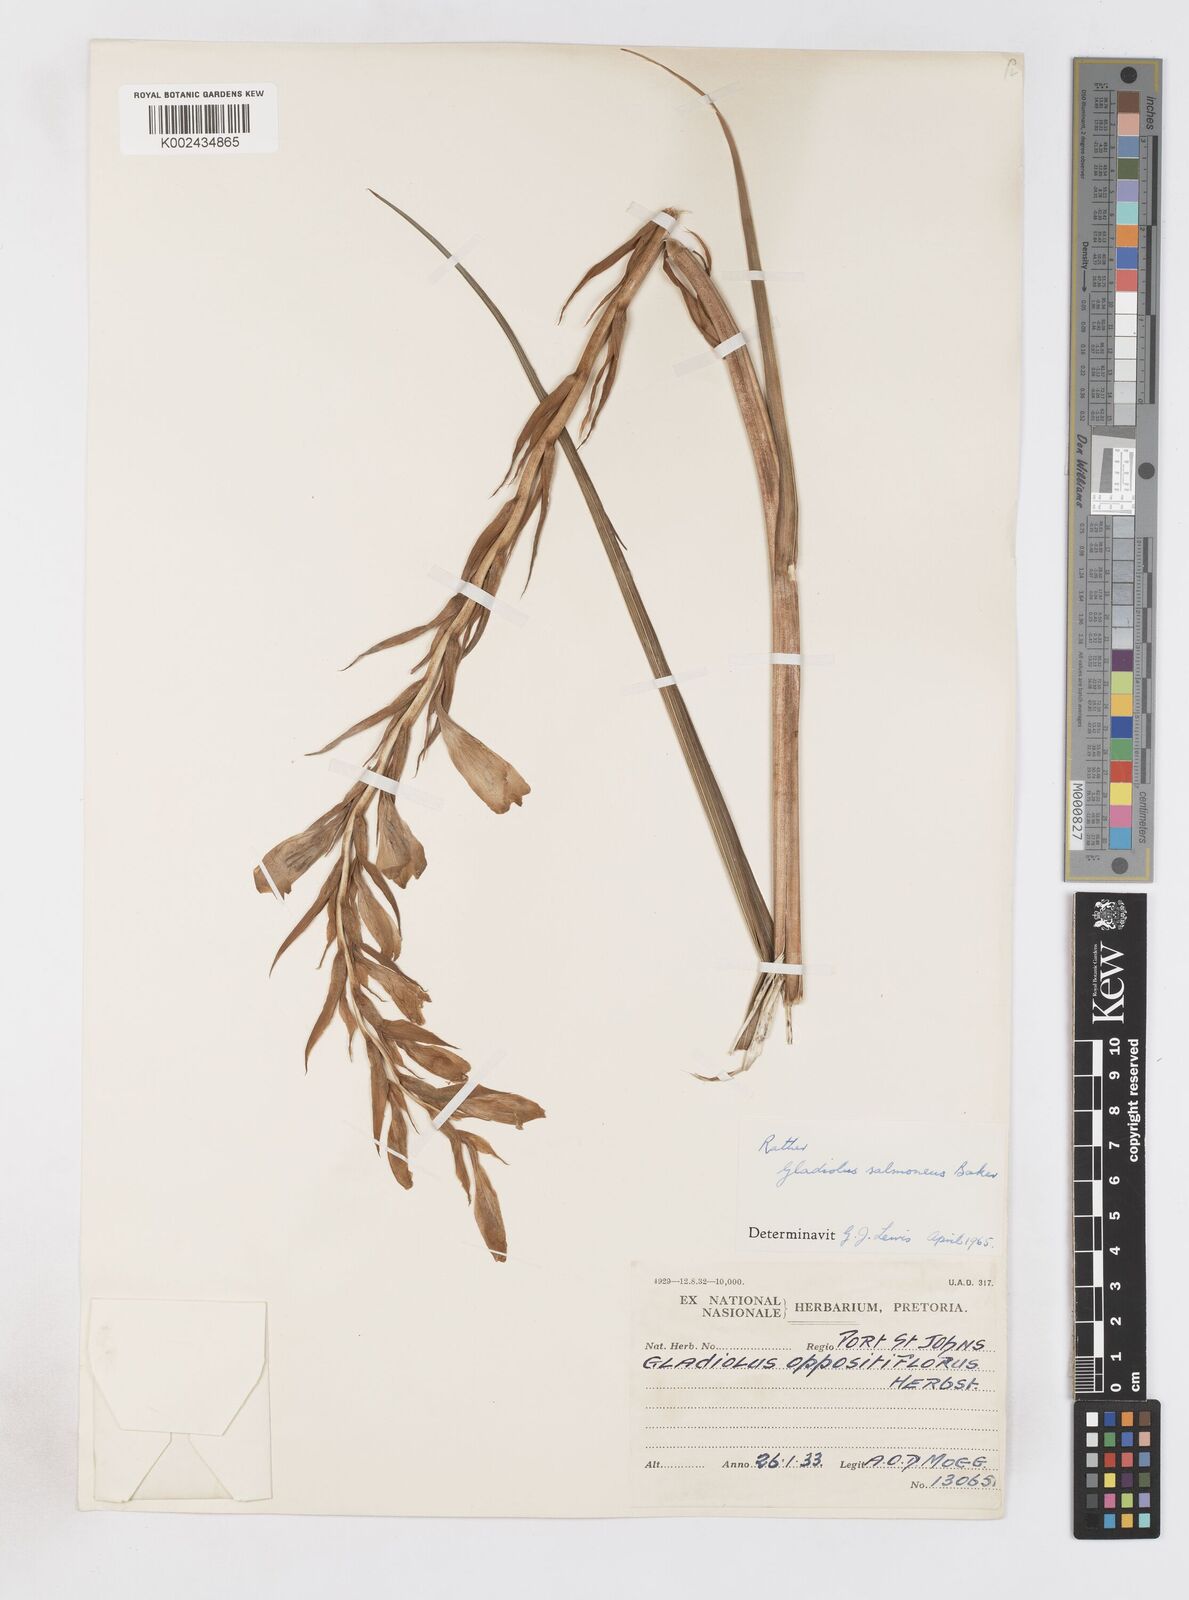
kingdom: Plantae
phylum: Tracheophyta
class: Liliopsida
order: Asparagales
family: Iridaceae
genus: Gladiolus
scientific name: Gladiolus oppositiflorus
